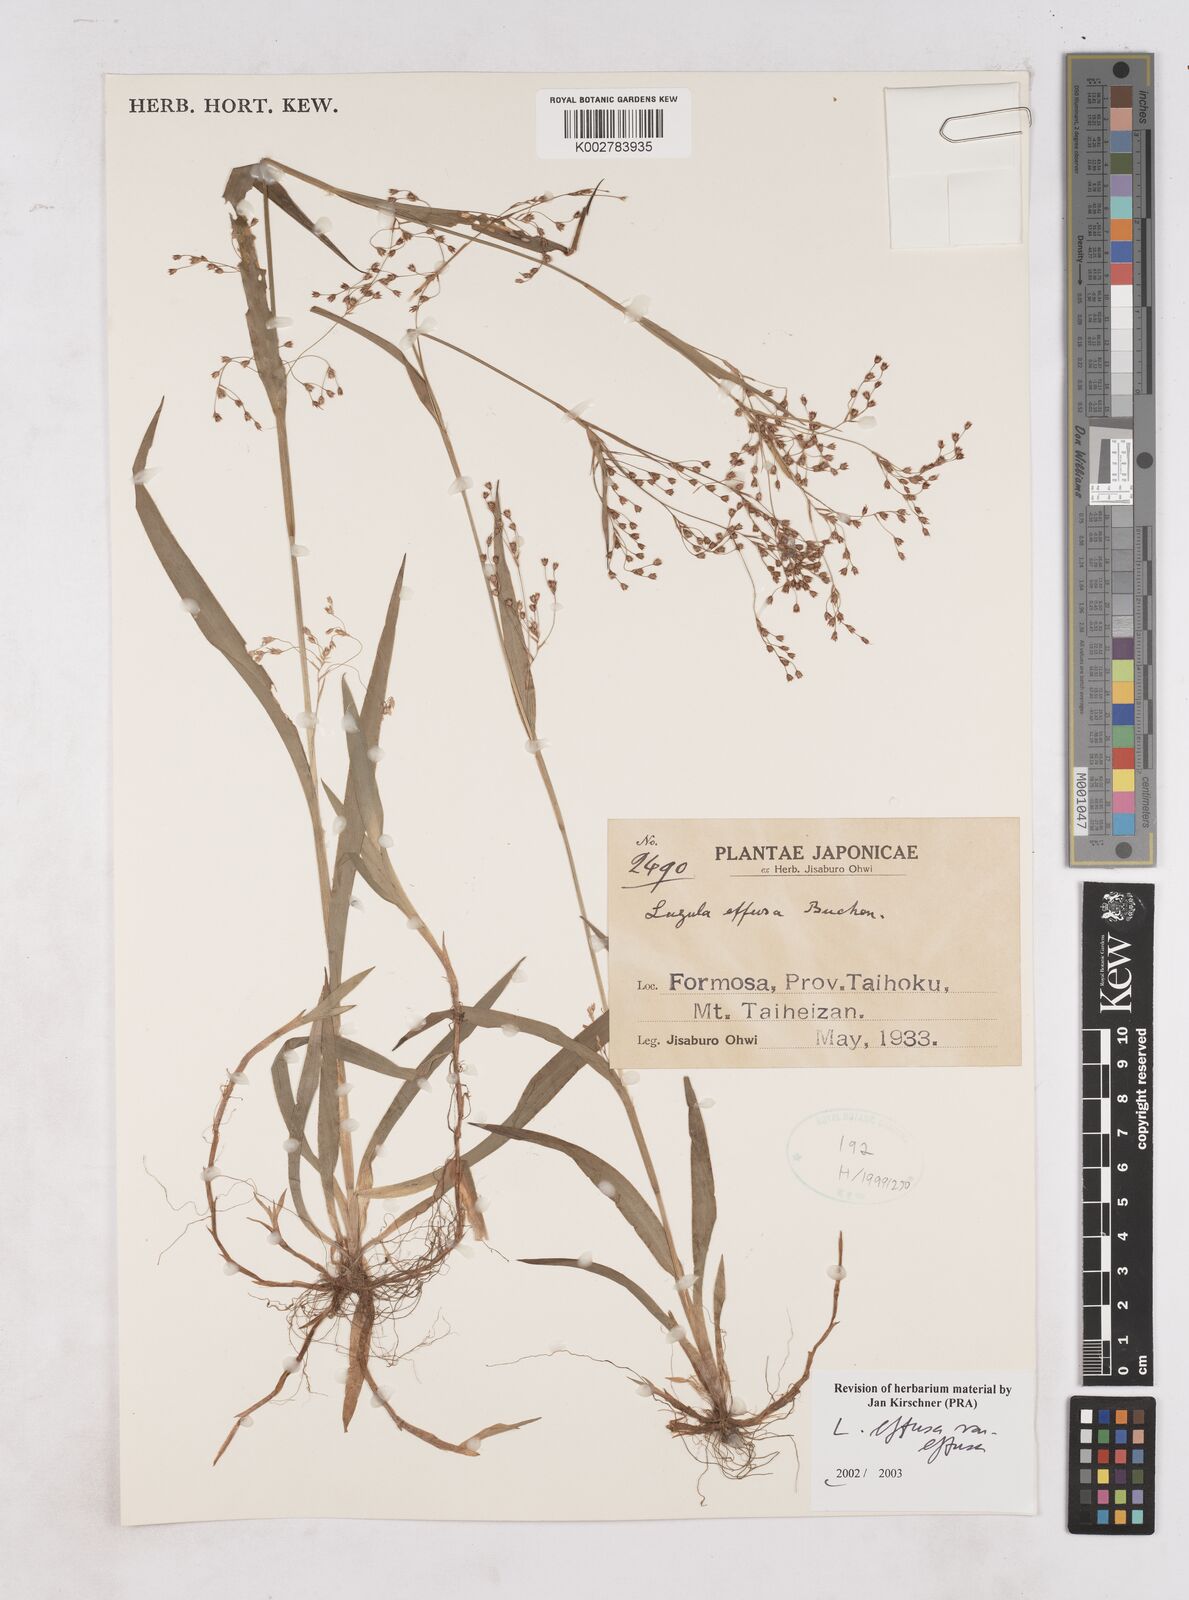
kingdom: Plantae
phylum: Tracheophyta
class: Liliopsida
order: Poales
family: Juncaceae
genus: Luzula
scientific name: Luzula effusa
